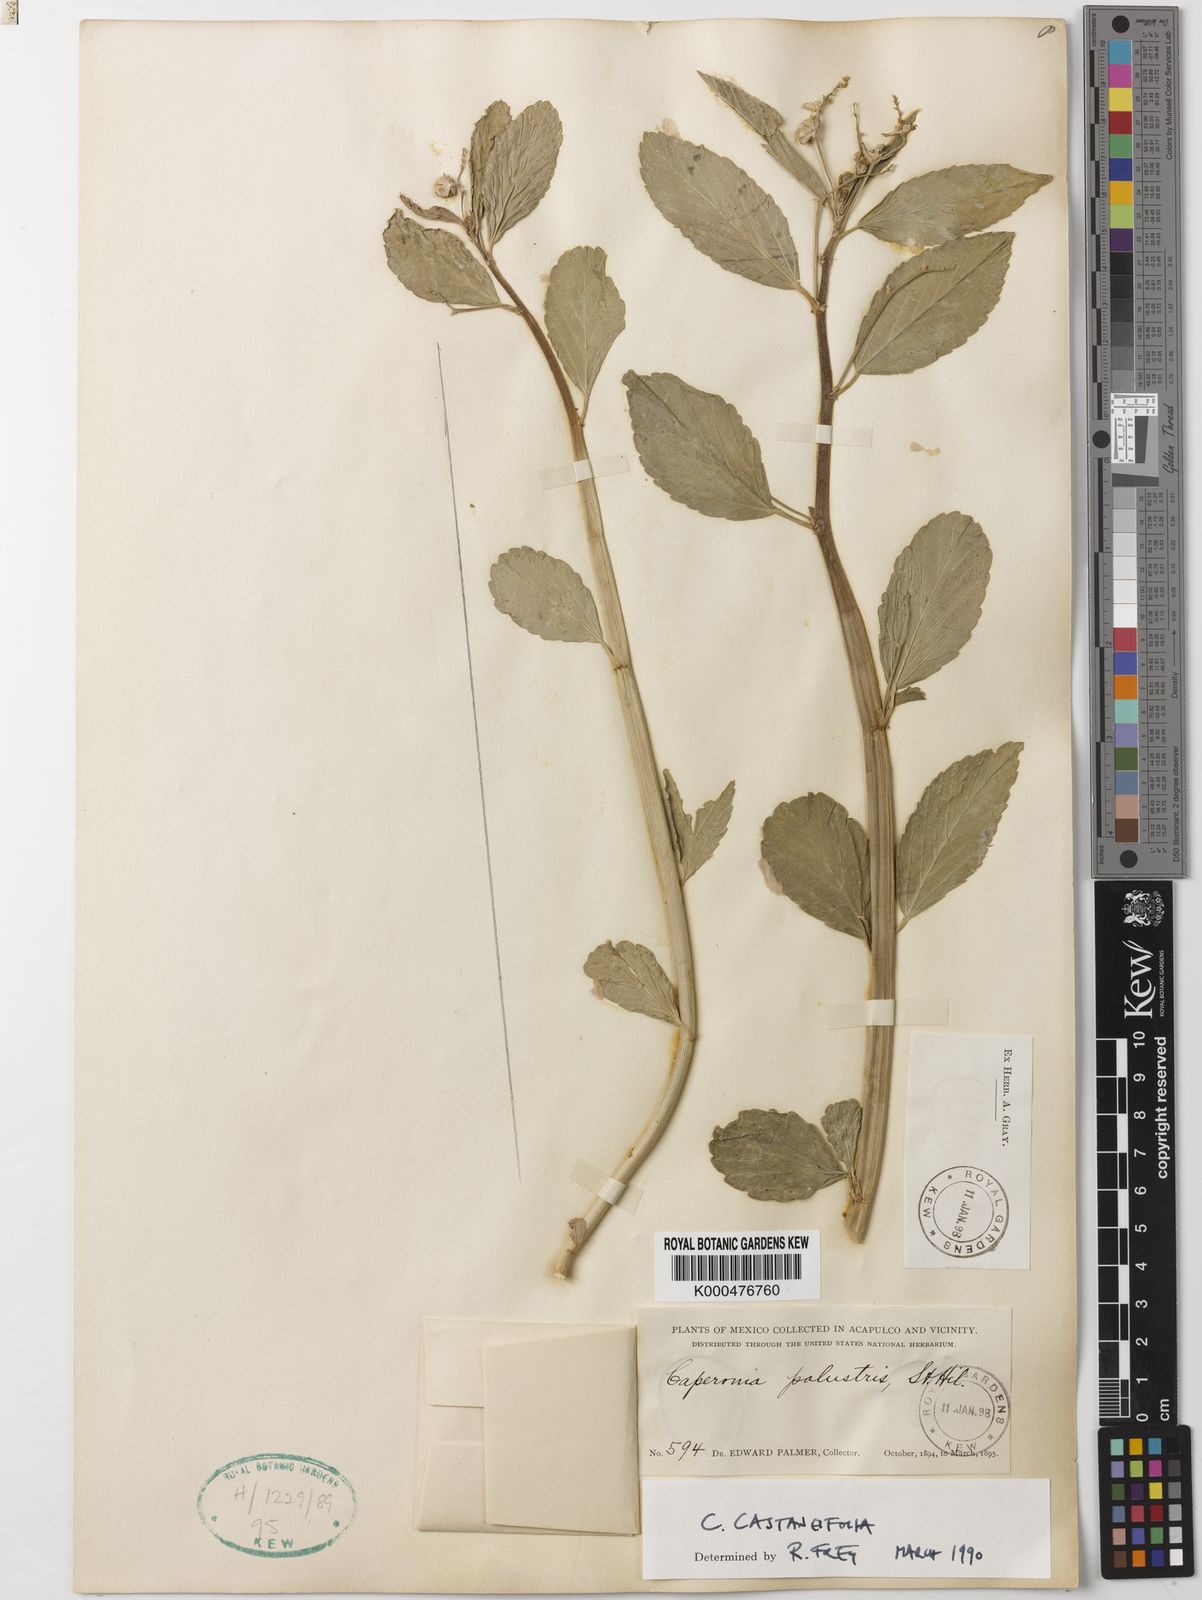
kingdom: Plantae
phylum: Tracheophyta
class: Magnoliopsida
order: Malpighiales
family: Euphorbiaceae
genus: Caperonia
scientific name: Caperonia castaneifolia
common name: Chestnutleaf false croton
